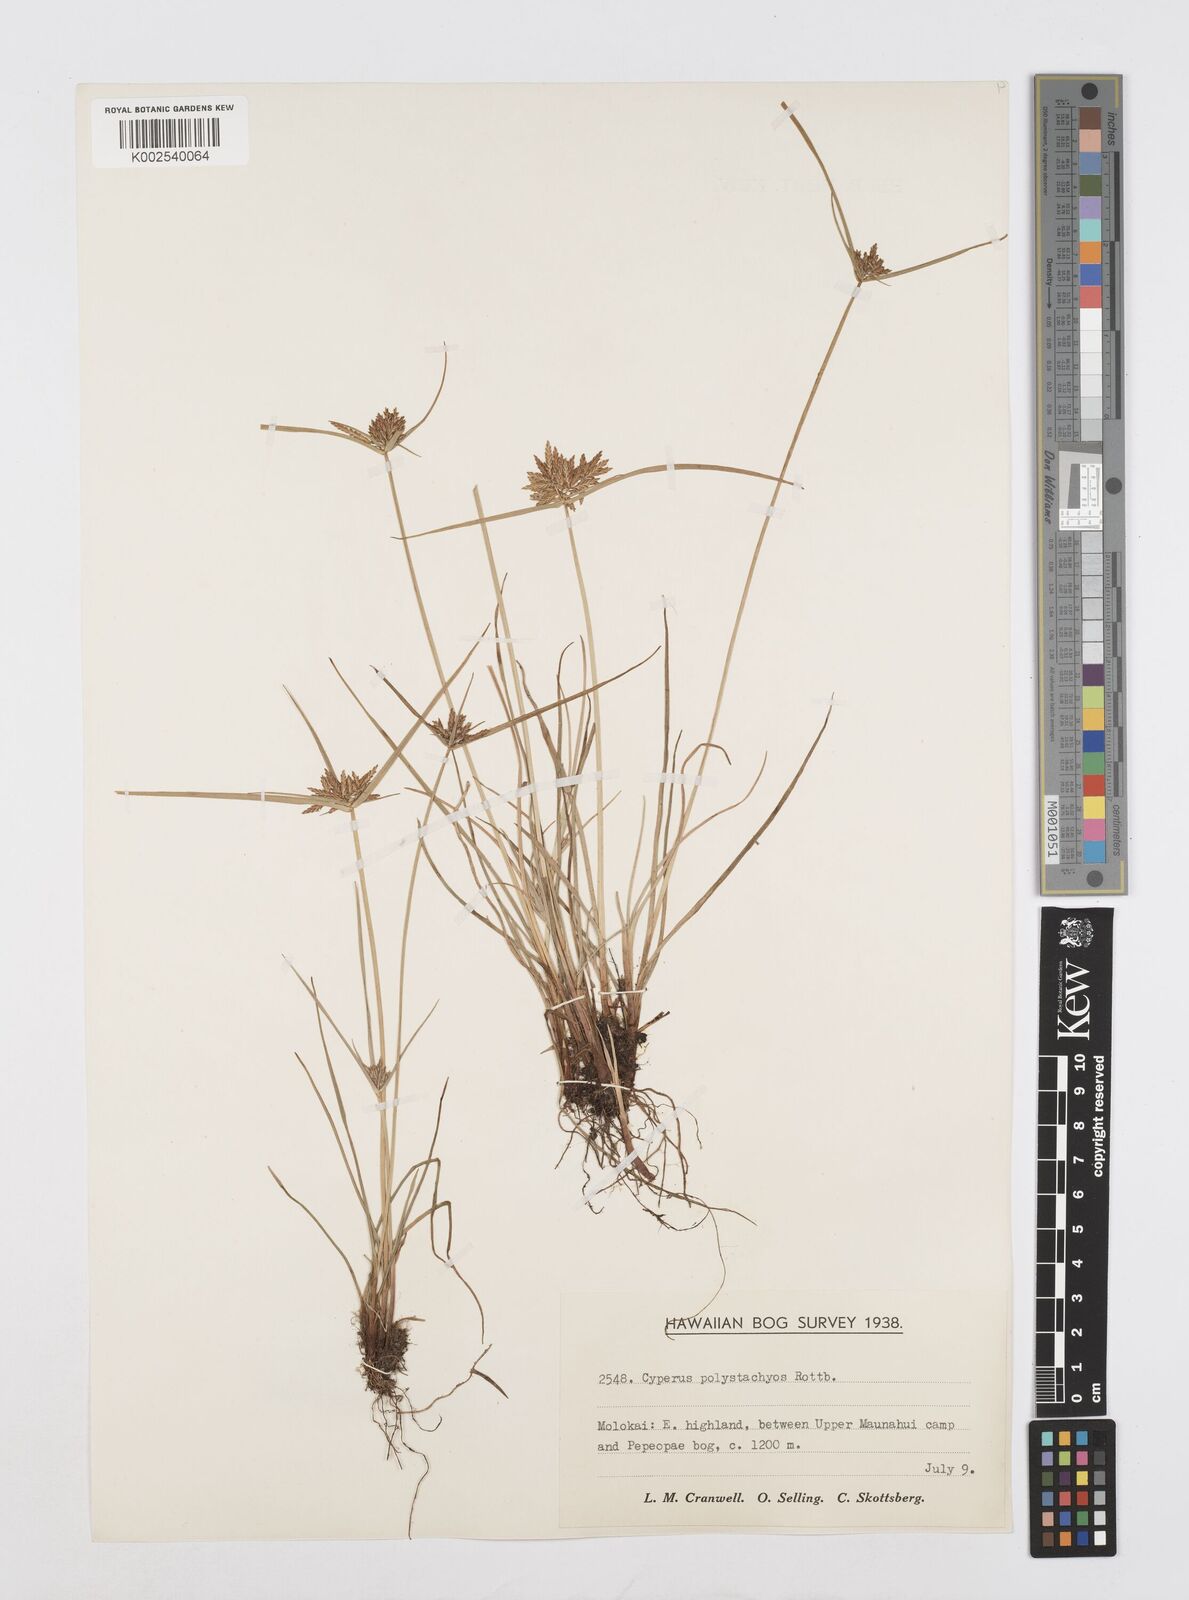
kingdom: Plantae
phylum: Tracheophyta
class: Liliopsida
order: Poales
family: Cyperaceae
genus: Cyperus
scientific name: Cyperus polystachyos
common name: Bunchy flat sedge
